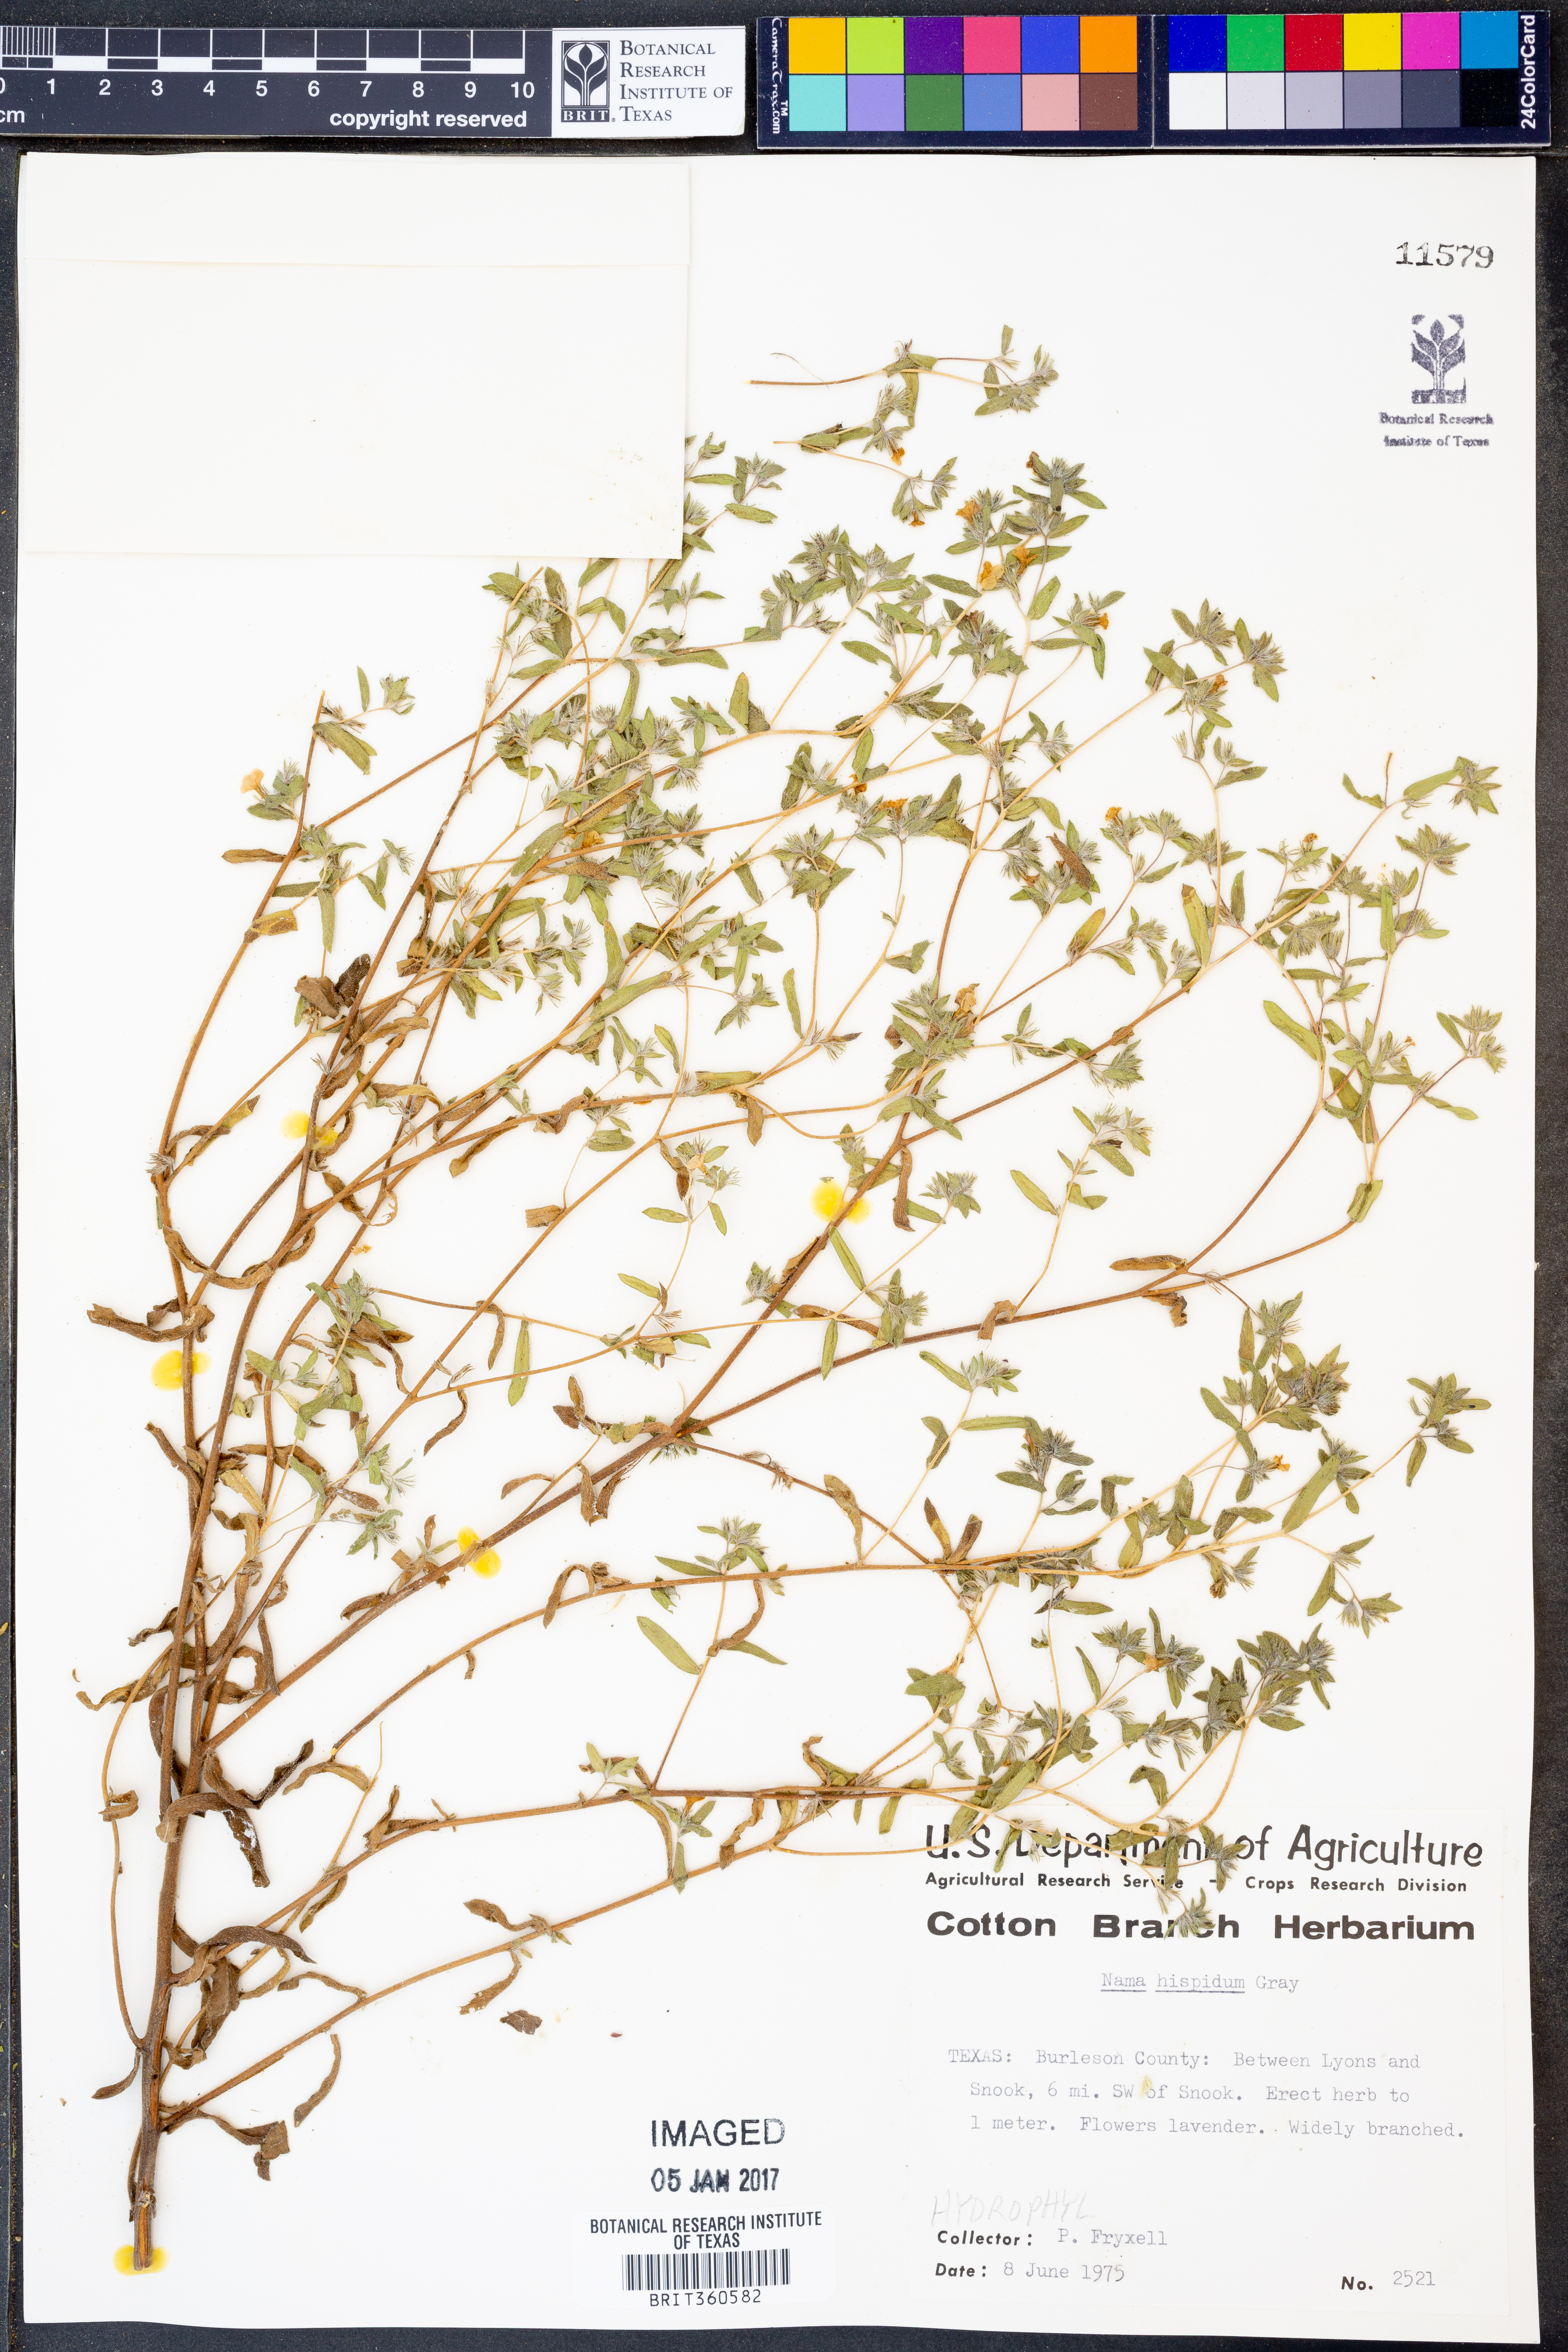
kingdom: Plantae
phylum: Tracheophyta
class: Magnoliopsida
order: Boraginales
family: Namaceae
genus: Nama
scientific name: Nama hispida
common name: Bristly nama
